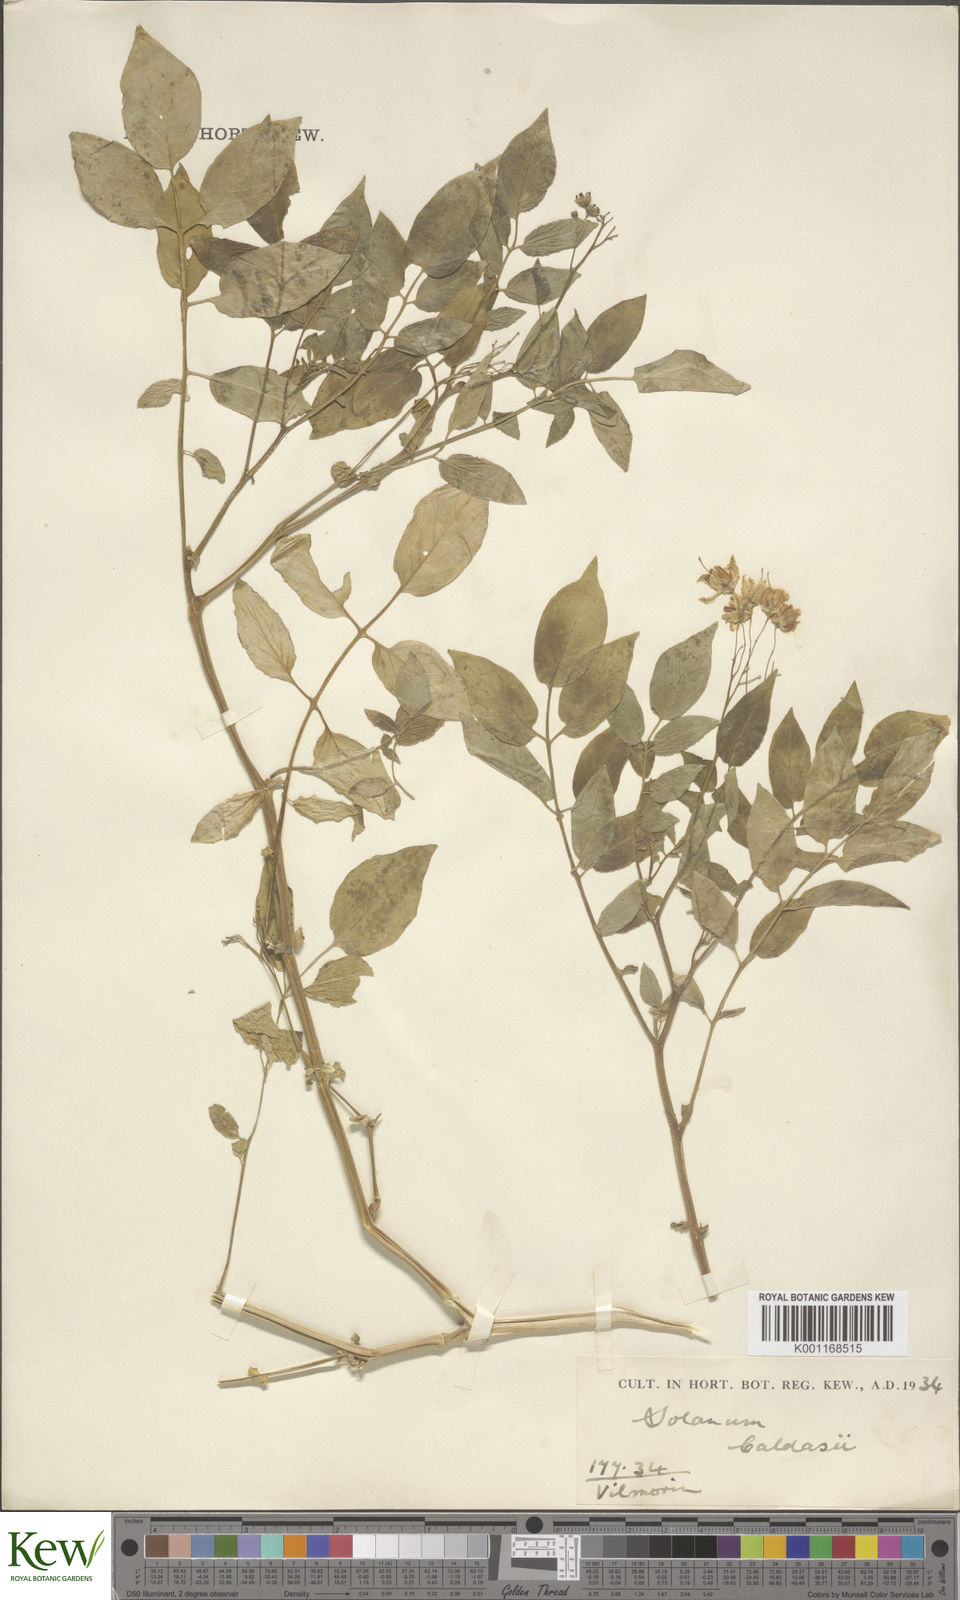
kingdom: Plantae
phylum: Tracheophyta
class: Magnoliopsida
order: Solanales
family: Solanaceae
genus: Solanum
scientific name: Solanum ochranthum
